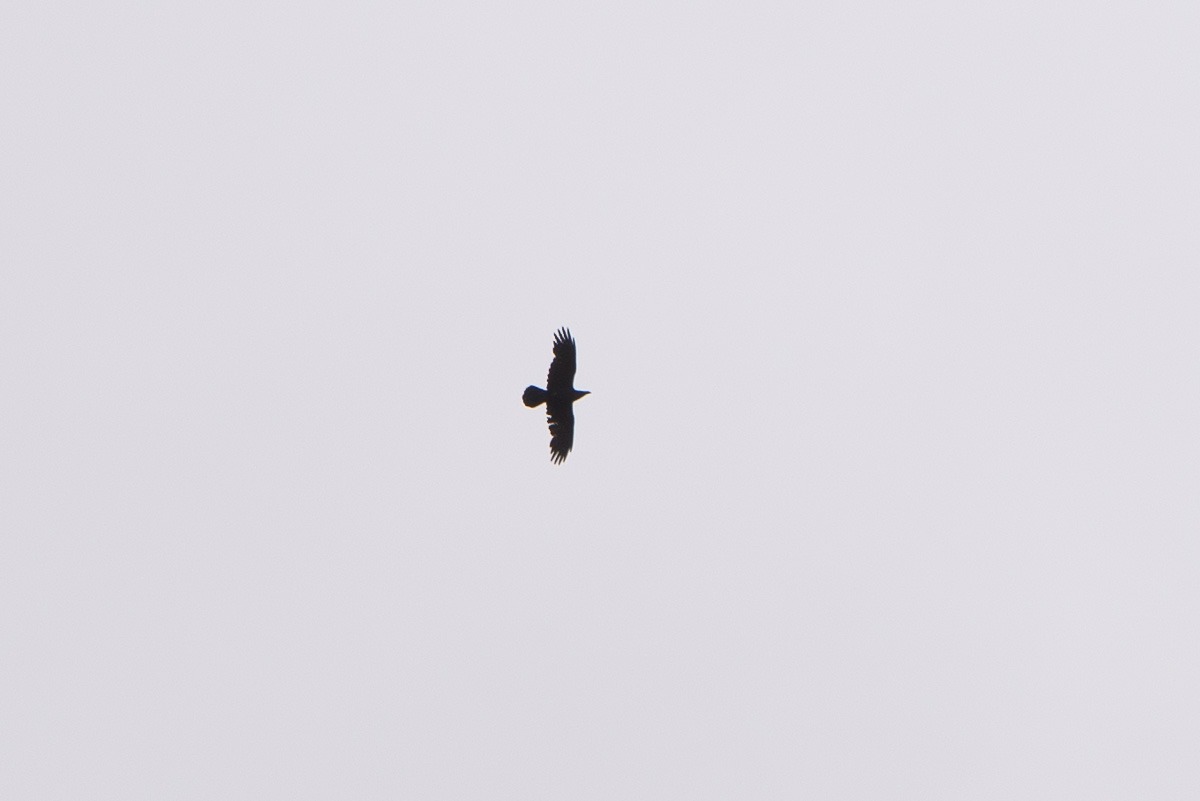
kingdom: Animalia
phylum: Chordata
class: Aves
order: Passeriformes
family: Corvidae
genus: Corvus
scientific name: Corvus corax
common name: Ravn
